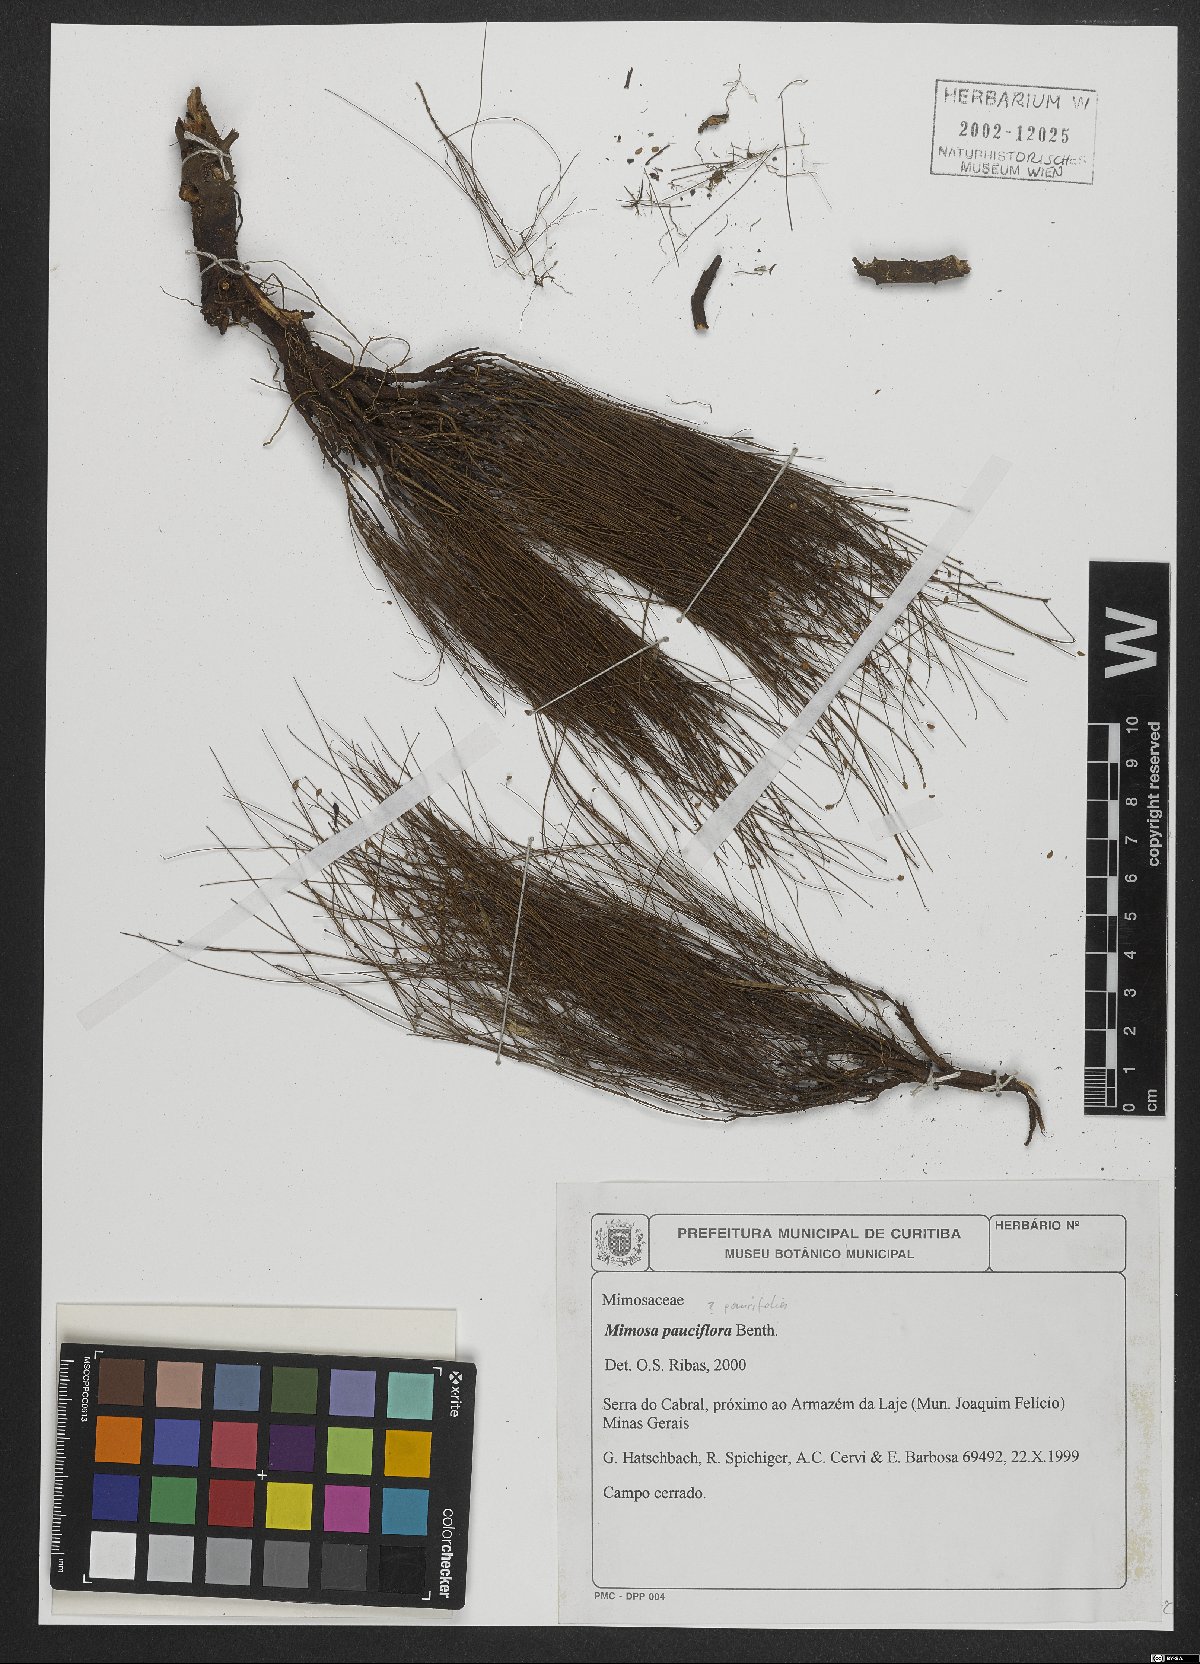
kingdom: Plantae
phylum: Tracheophyta
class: Magnoliopsida
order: Fabales
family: Fabaceae
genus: Mimosa
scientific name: Mimosa paucifolia
